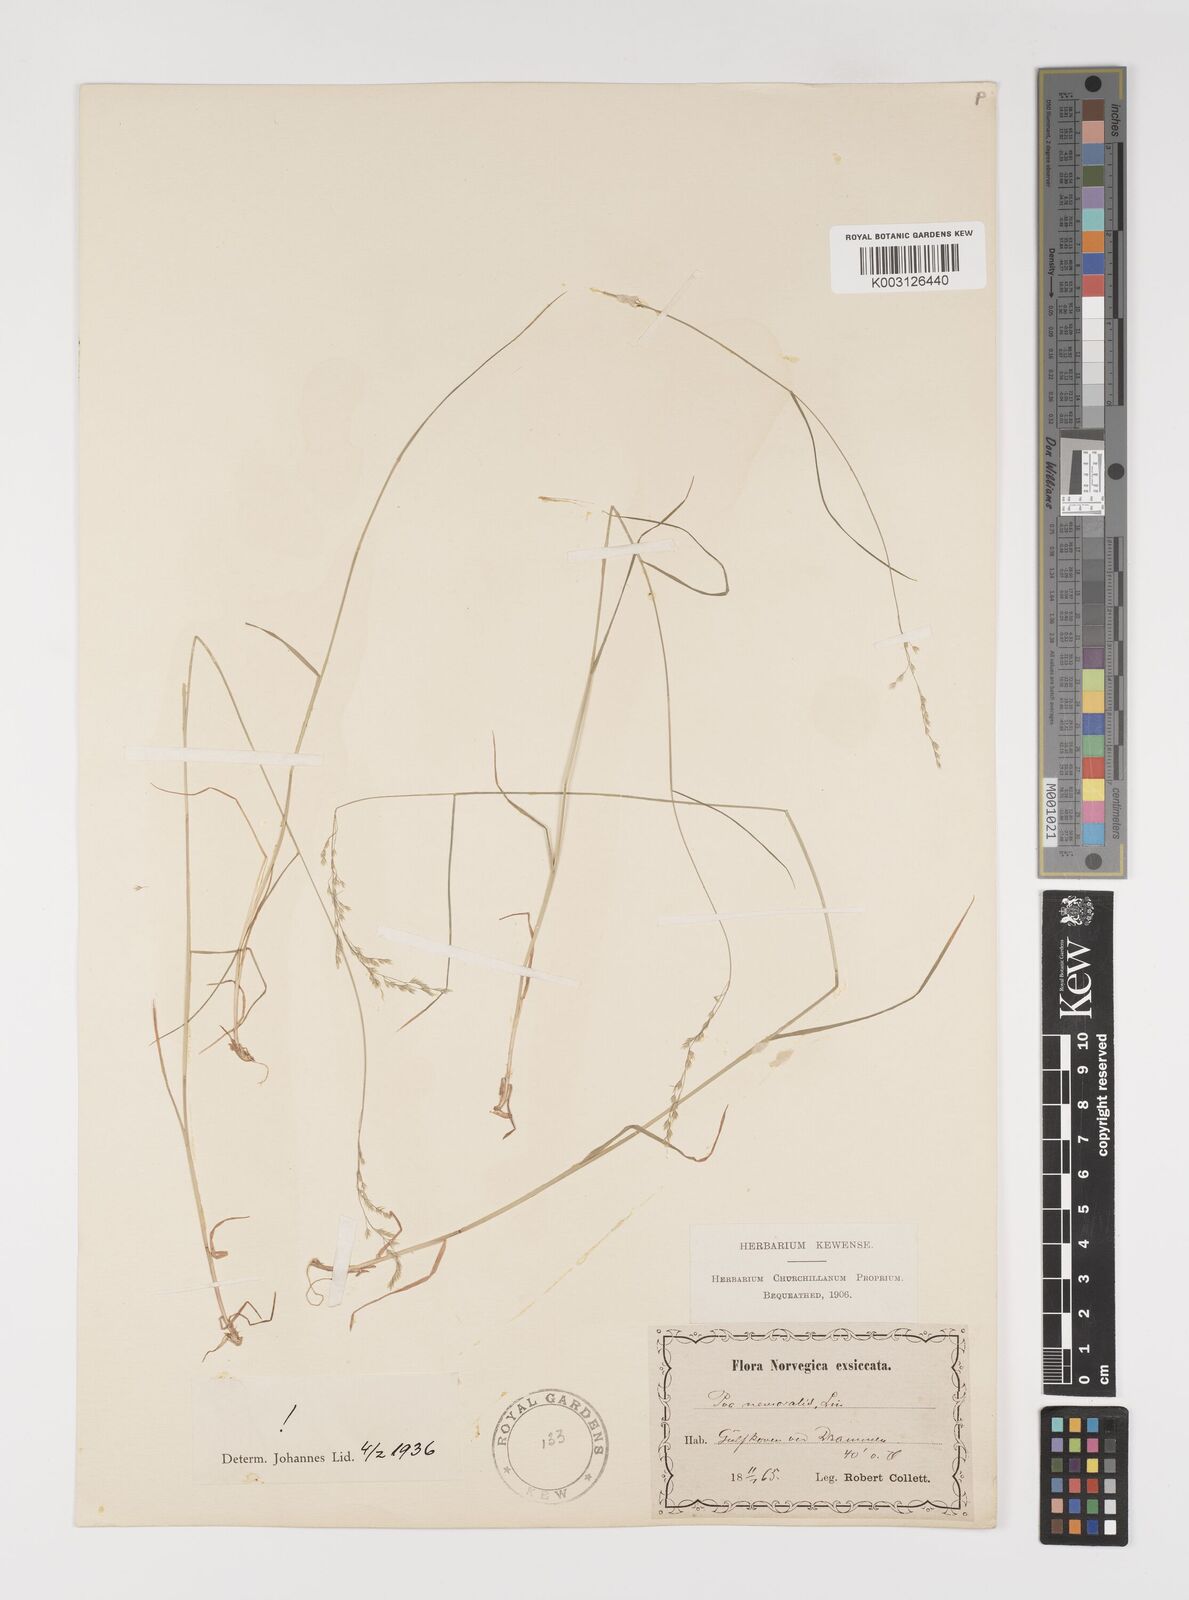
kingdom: Plantae
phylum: Tracheophyta
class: Liliopsida
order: Poales
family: Poaceae
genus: Poa
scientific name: Poa nemoralis
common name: Wood bluegrass
